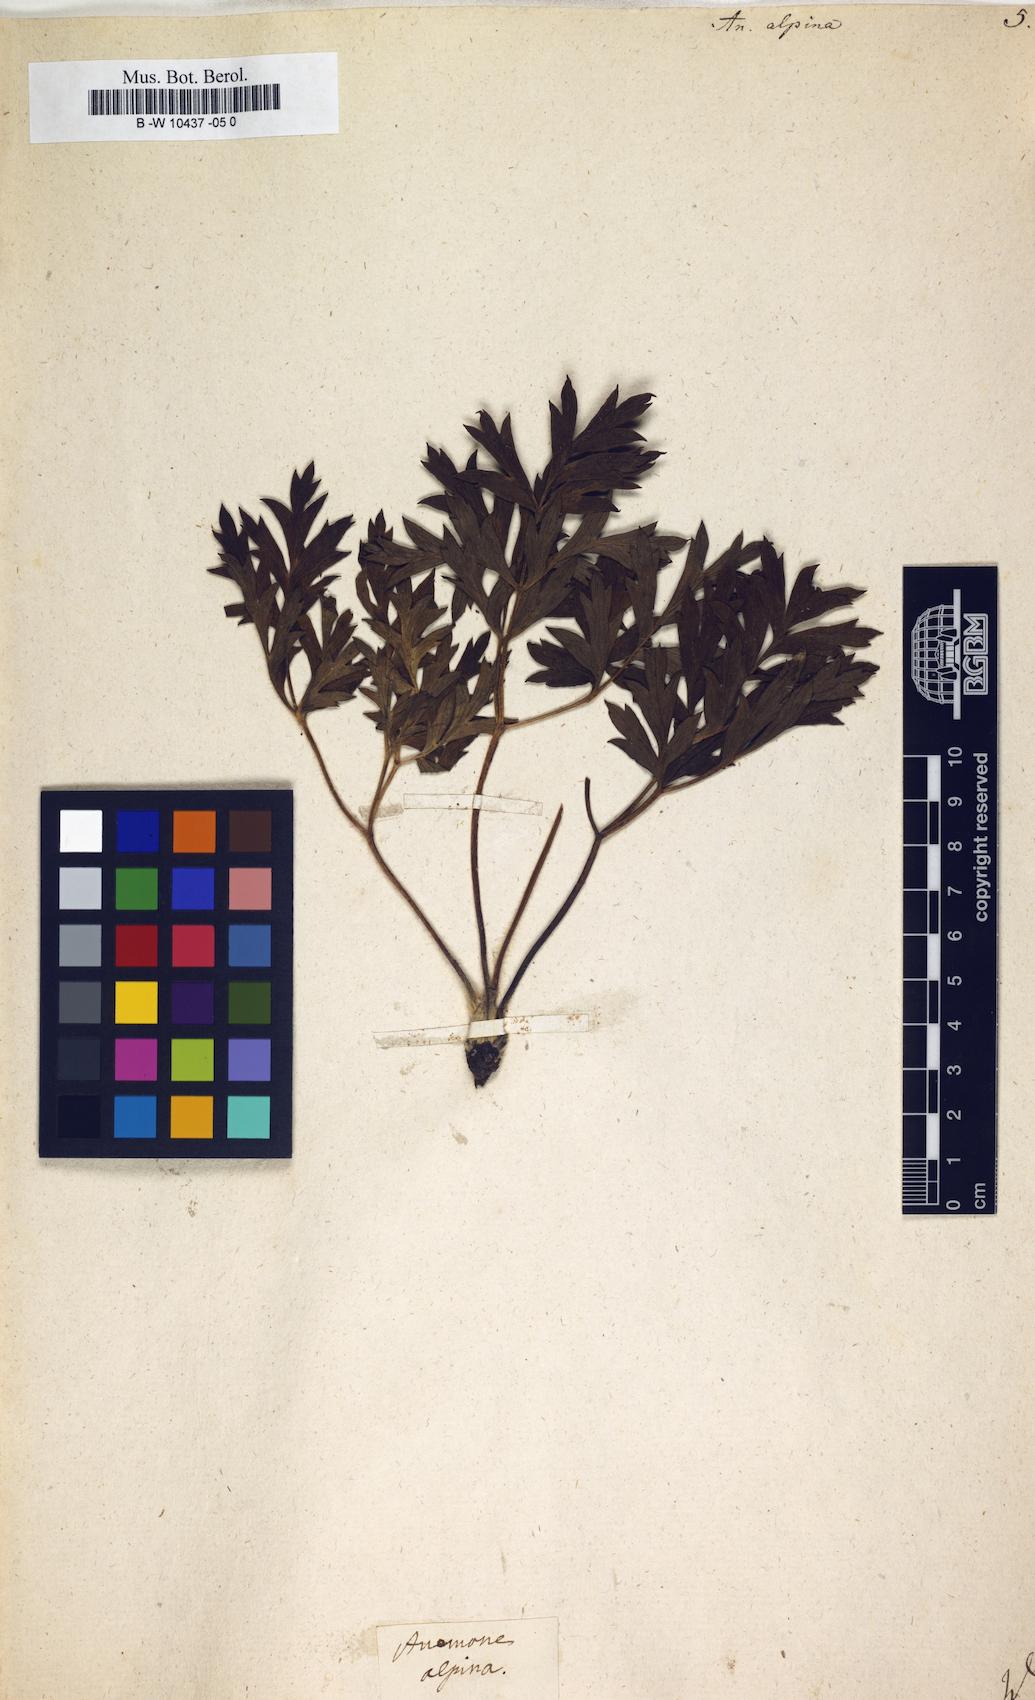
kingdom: Plantae
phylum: Tracheophyta
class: Magnoliopsida
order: Ranunculales
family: Ranunculaceae
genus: Pulsatilla
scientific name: Pulsatilla alpina
